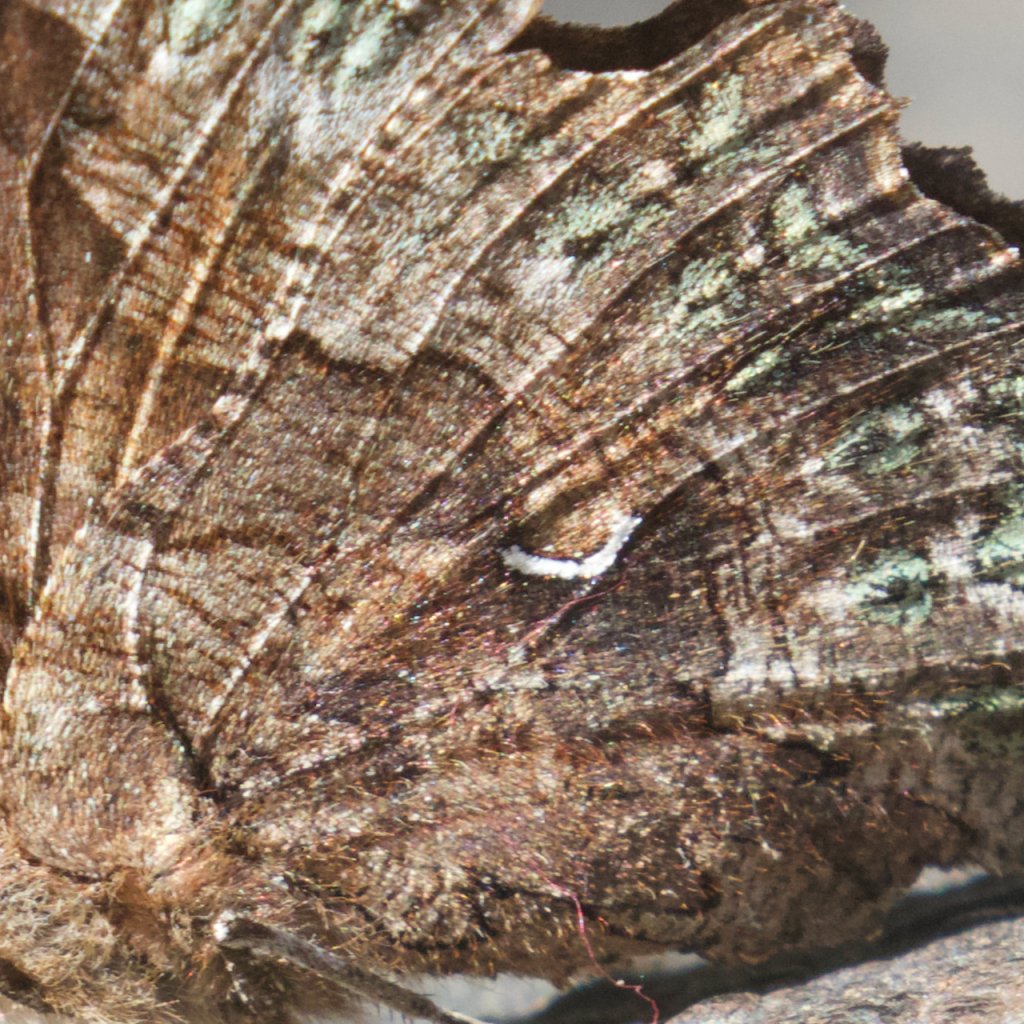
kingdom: Animalia
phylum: Arthropoda
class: Insecta
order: Lepidoptera
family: Nymphalidae
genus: Polygonia
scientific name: Polygonia faunus
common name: Green Comma
